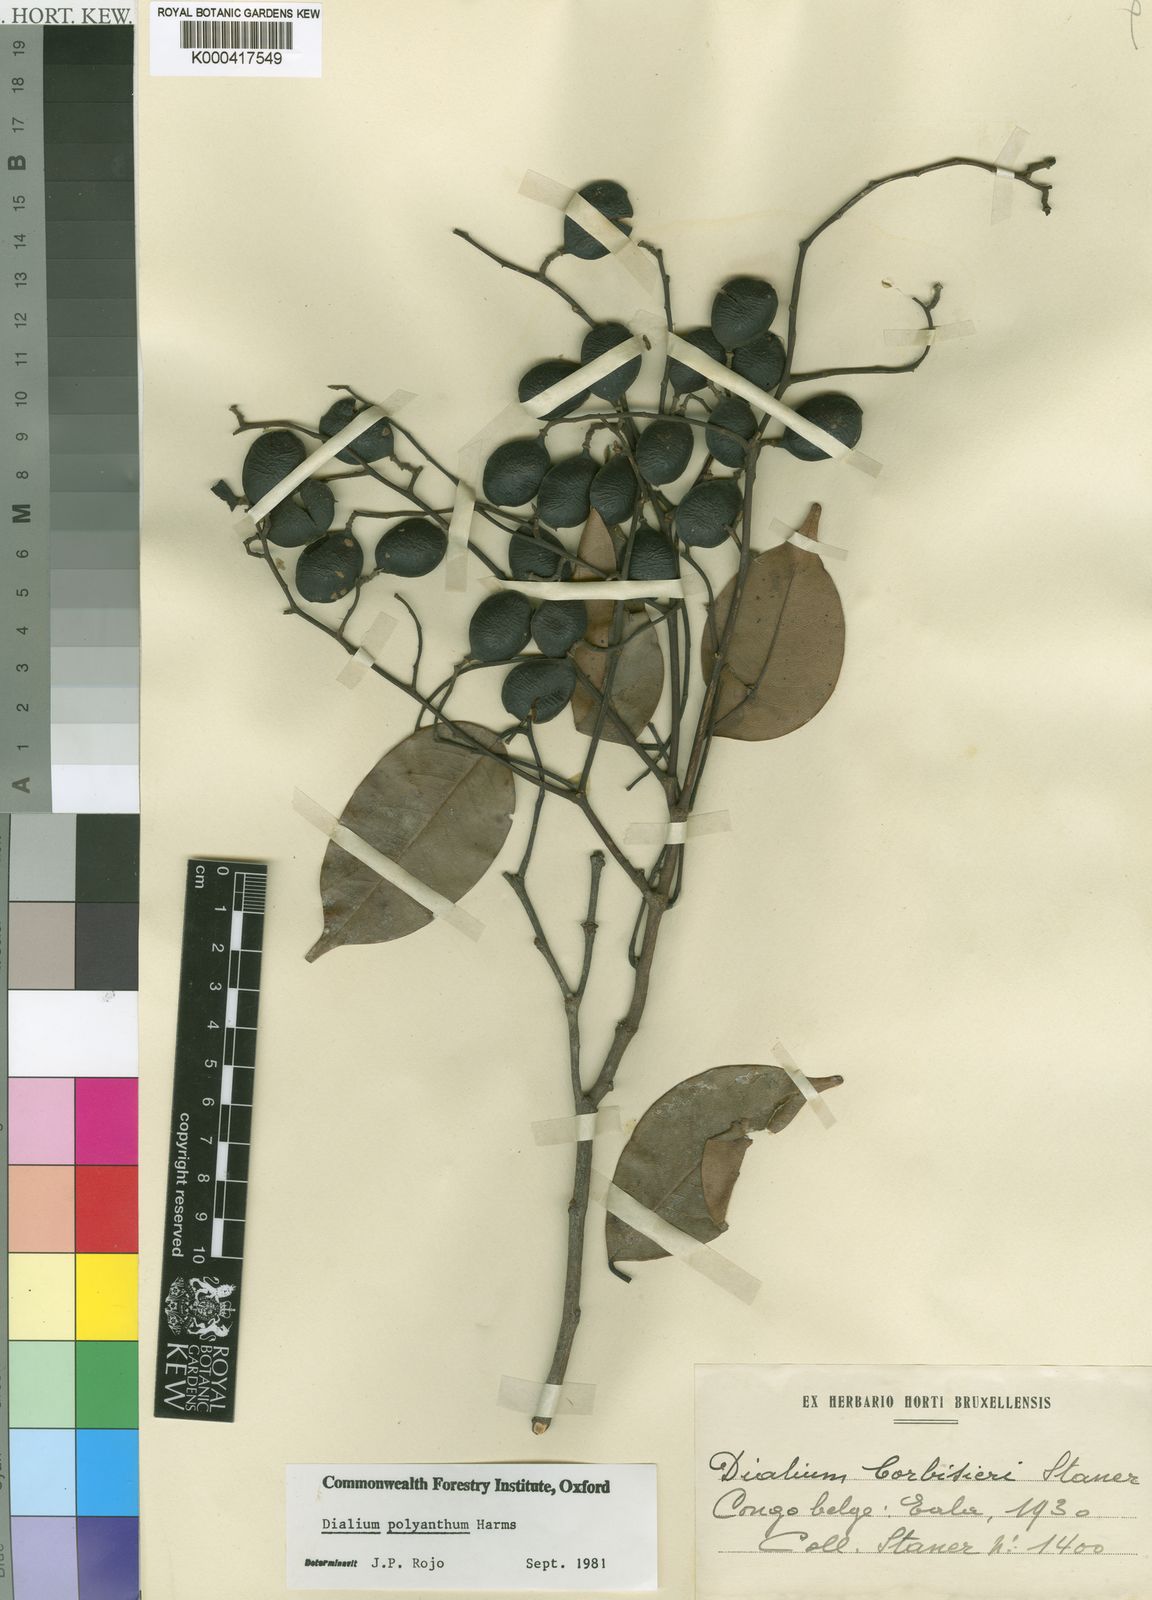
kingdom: Plantae
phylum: Tracheophyta
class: Magnoliopsida
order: Fabales
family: Fabaceae
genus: Dialium
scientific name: Dialium polyanthum
